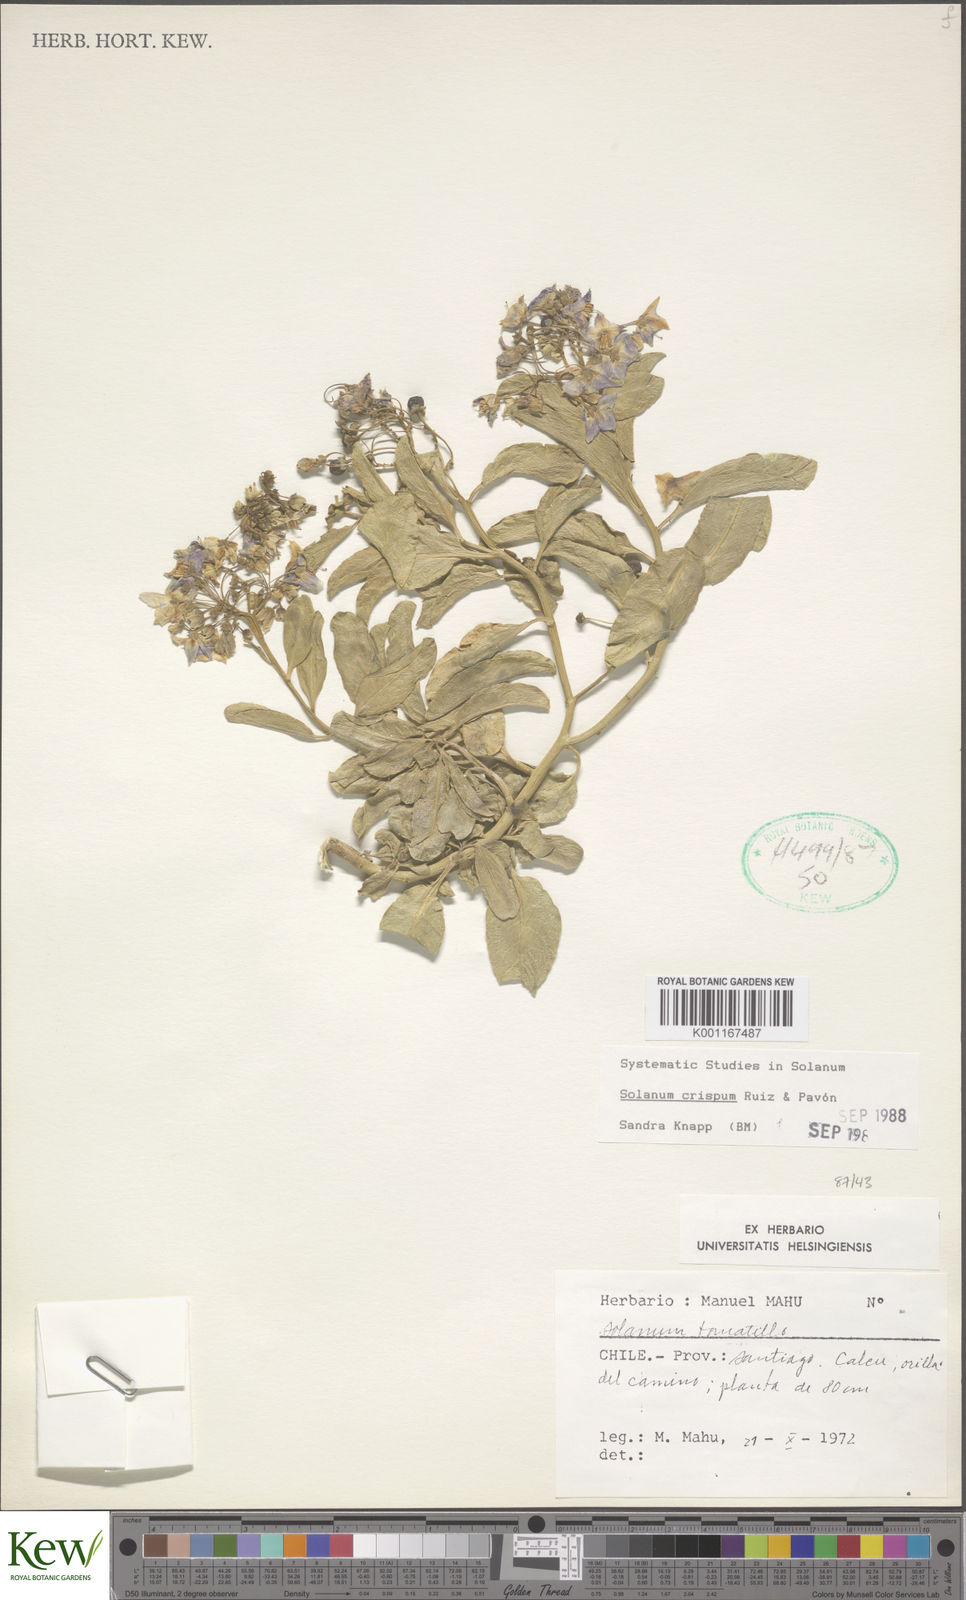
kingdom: Plantae
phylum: Tracheophyta
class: Magnoliopsida
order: Solanales
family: Solanaceae
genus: Solanum
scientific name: Solanum crispum
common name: Chilean nightshade
